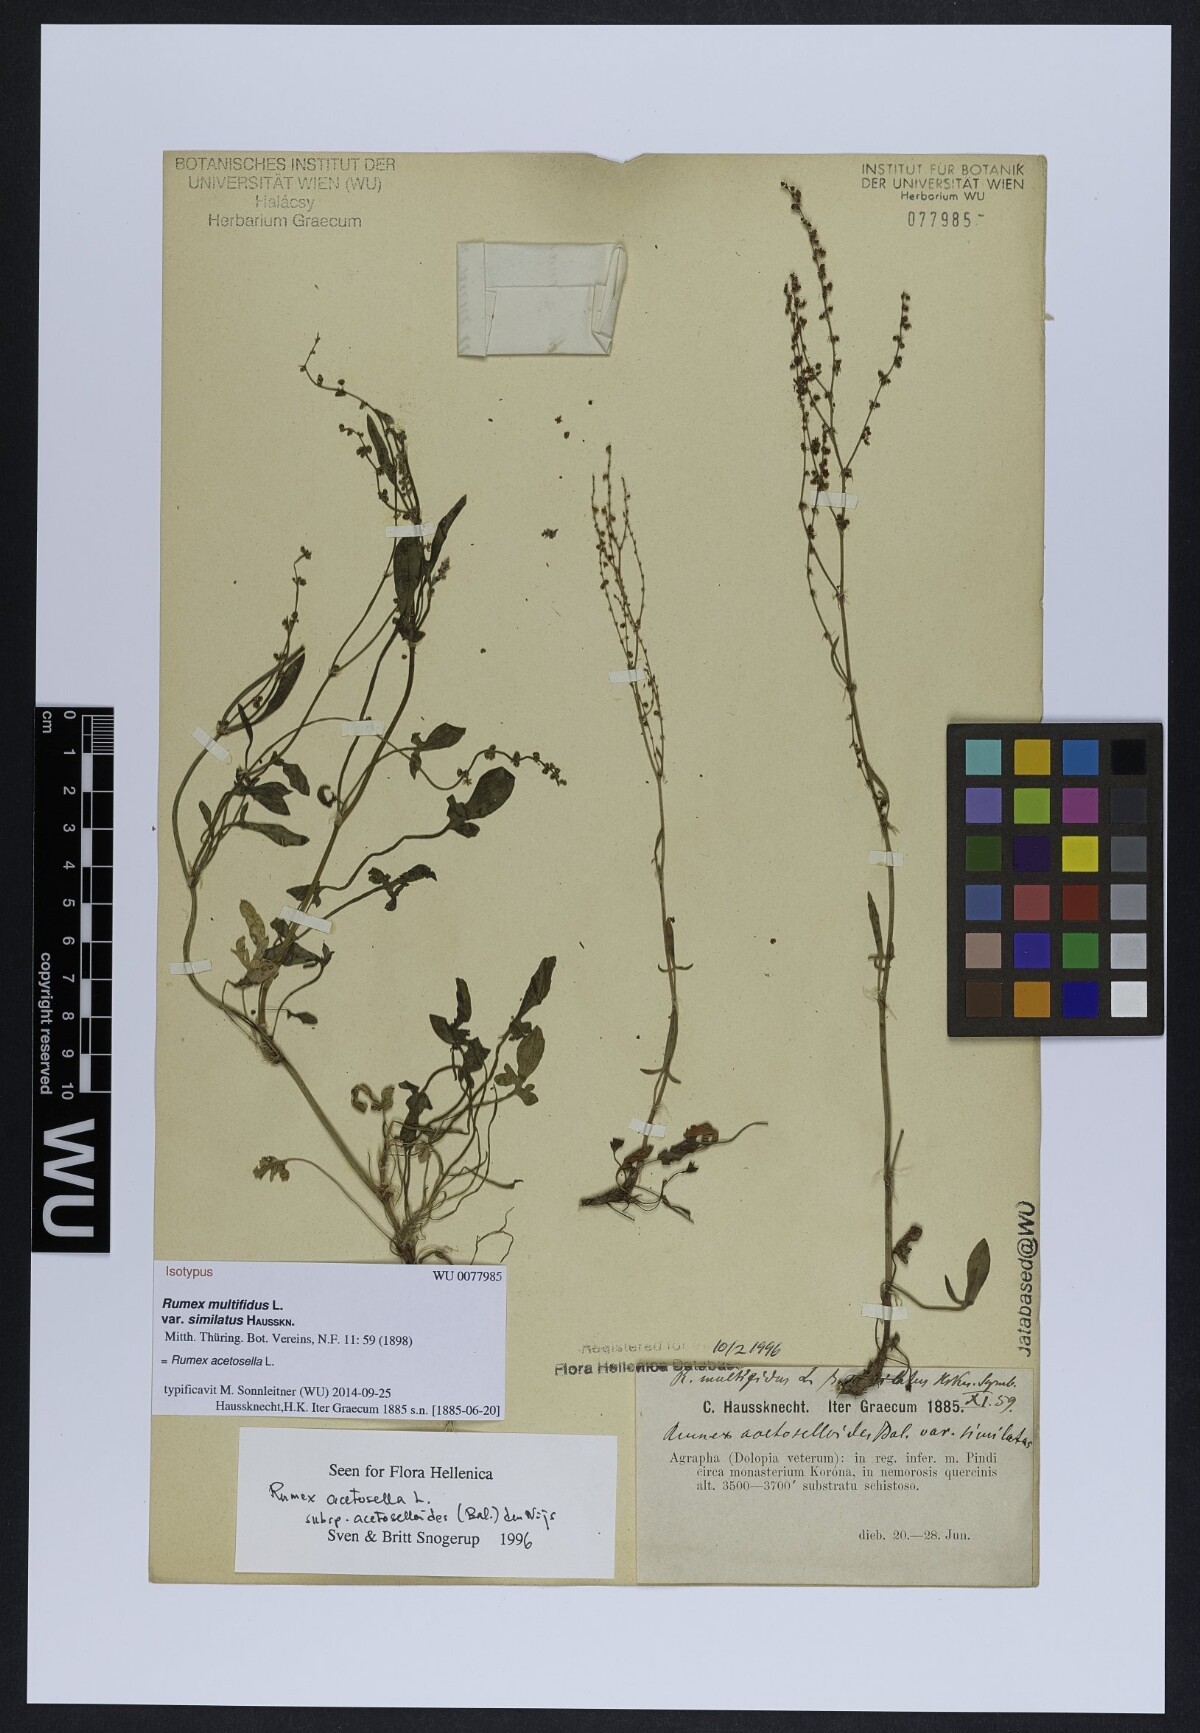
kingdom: Plantae
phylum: Tracheophyta
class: Magnoliopsida
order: Caryophyllales
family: Polygonaceae
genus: Rumex
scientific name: Rumex
